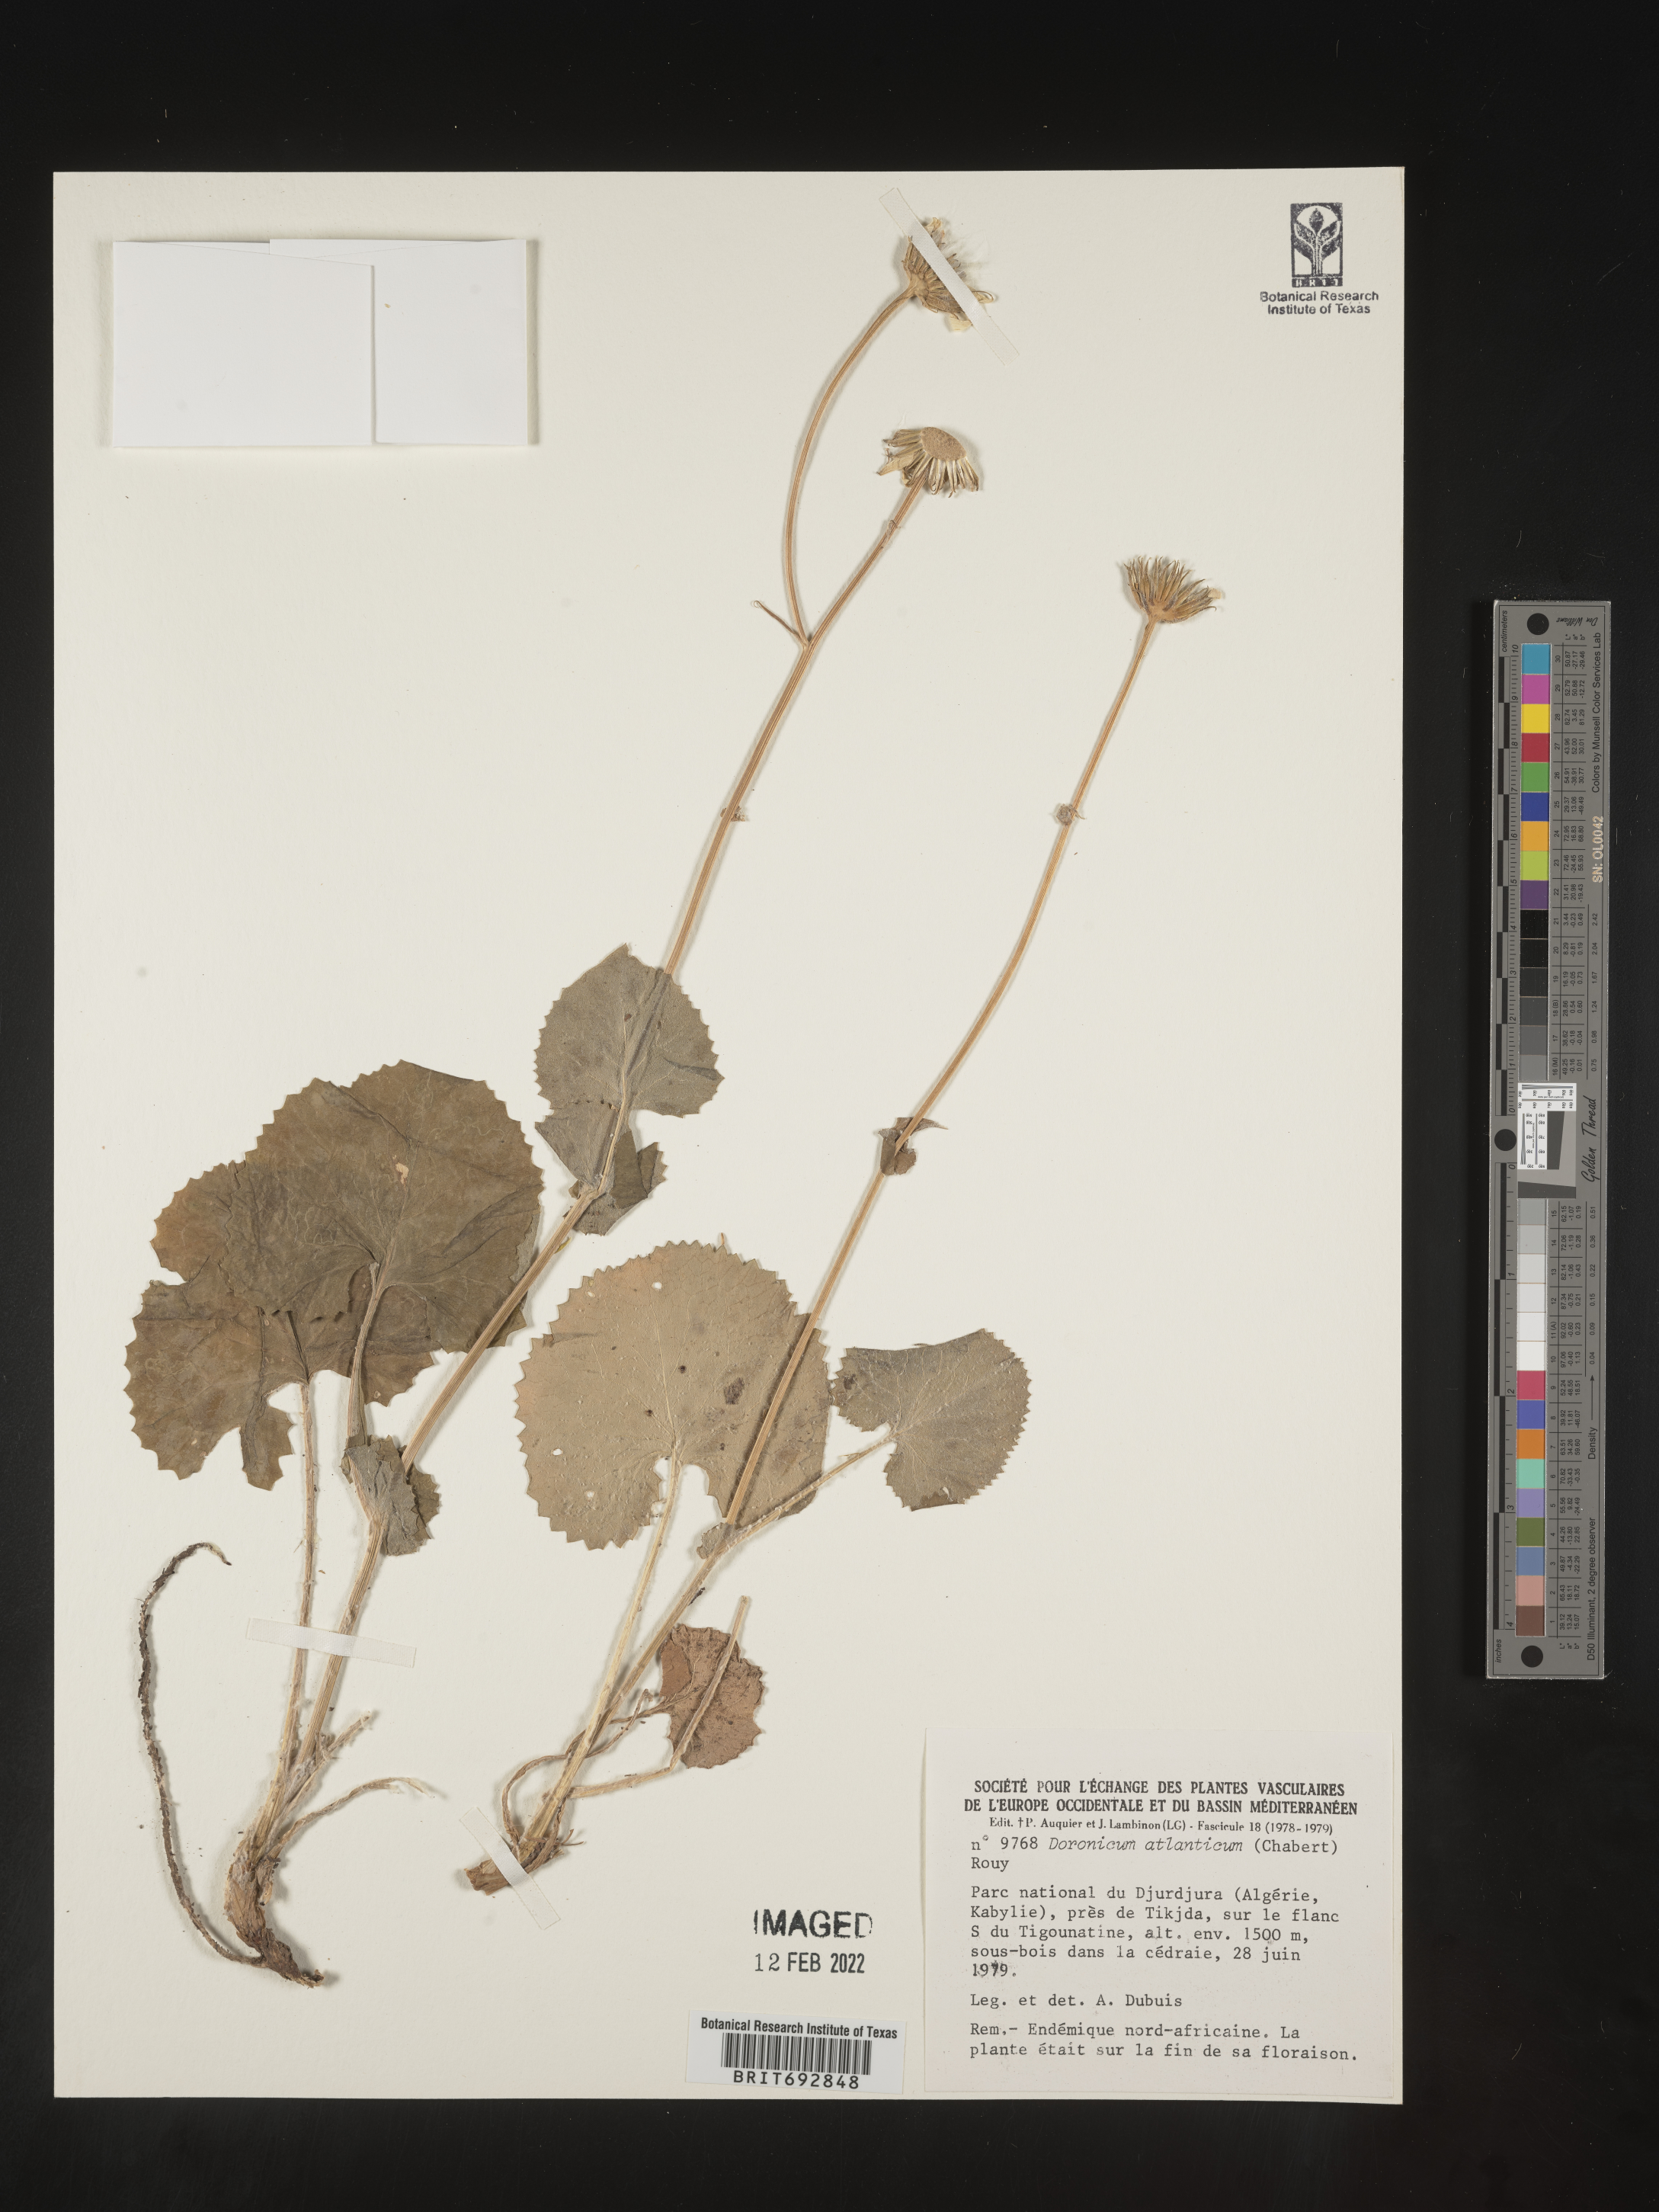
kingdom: Plantae
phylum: Tracheophyta
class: Magnoliopsida
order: Asterales
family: Asteraceae
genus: Doronicum
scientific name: Doronicum
